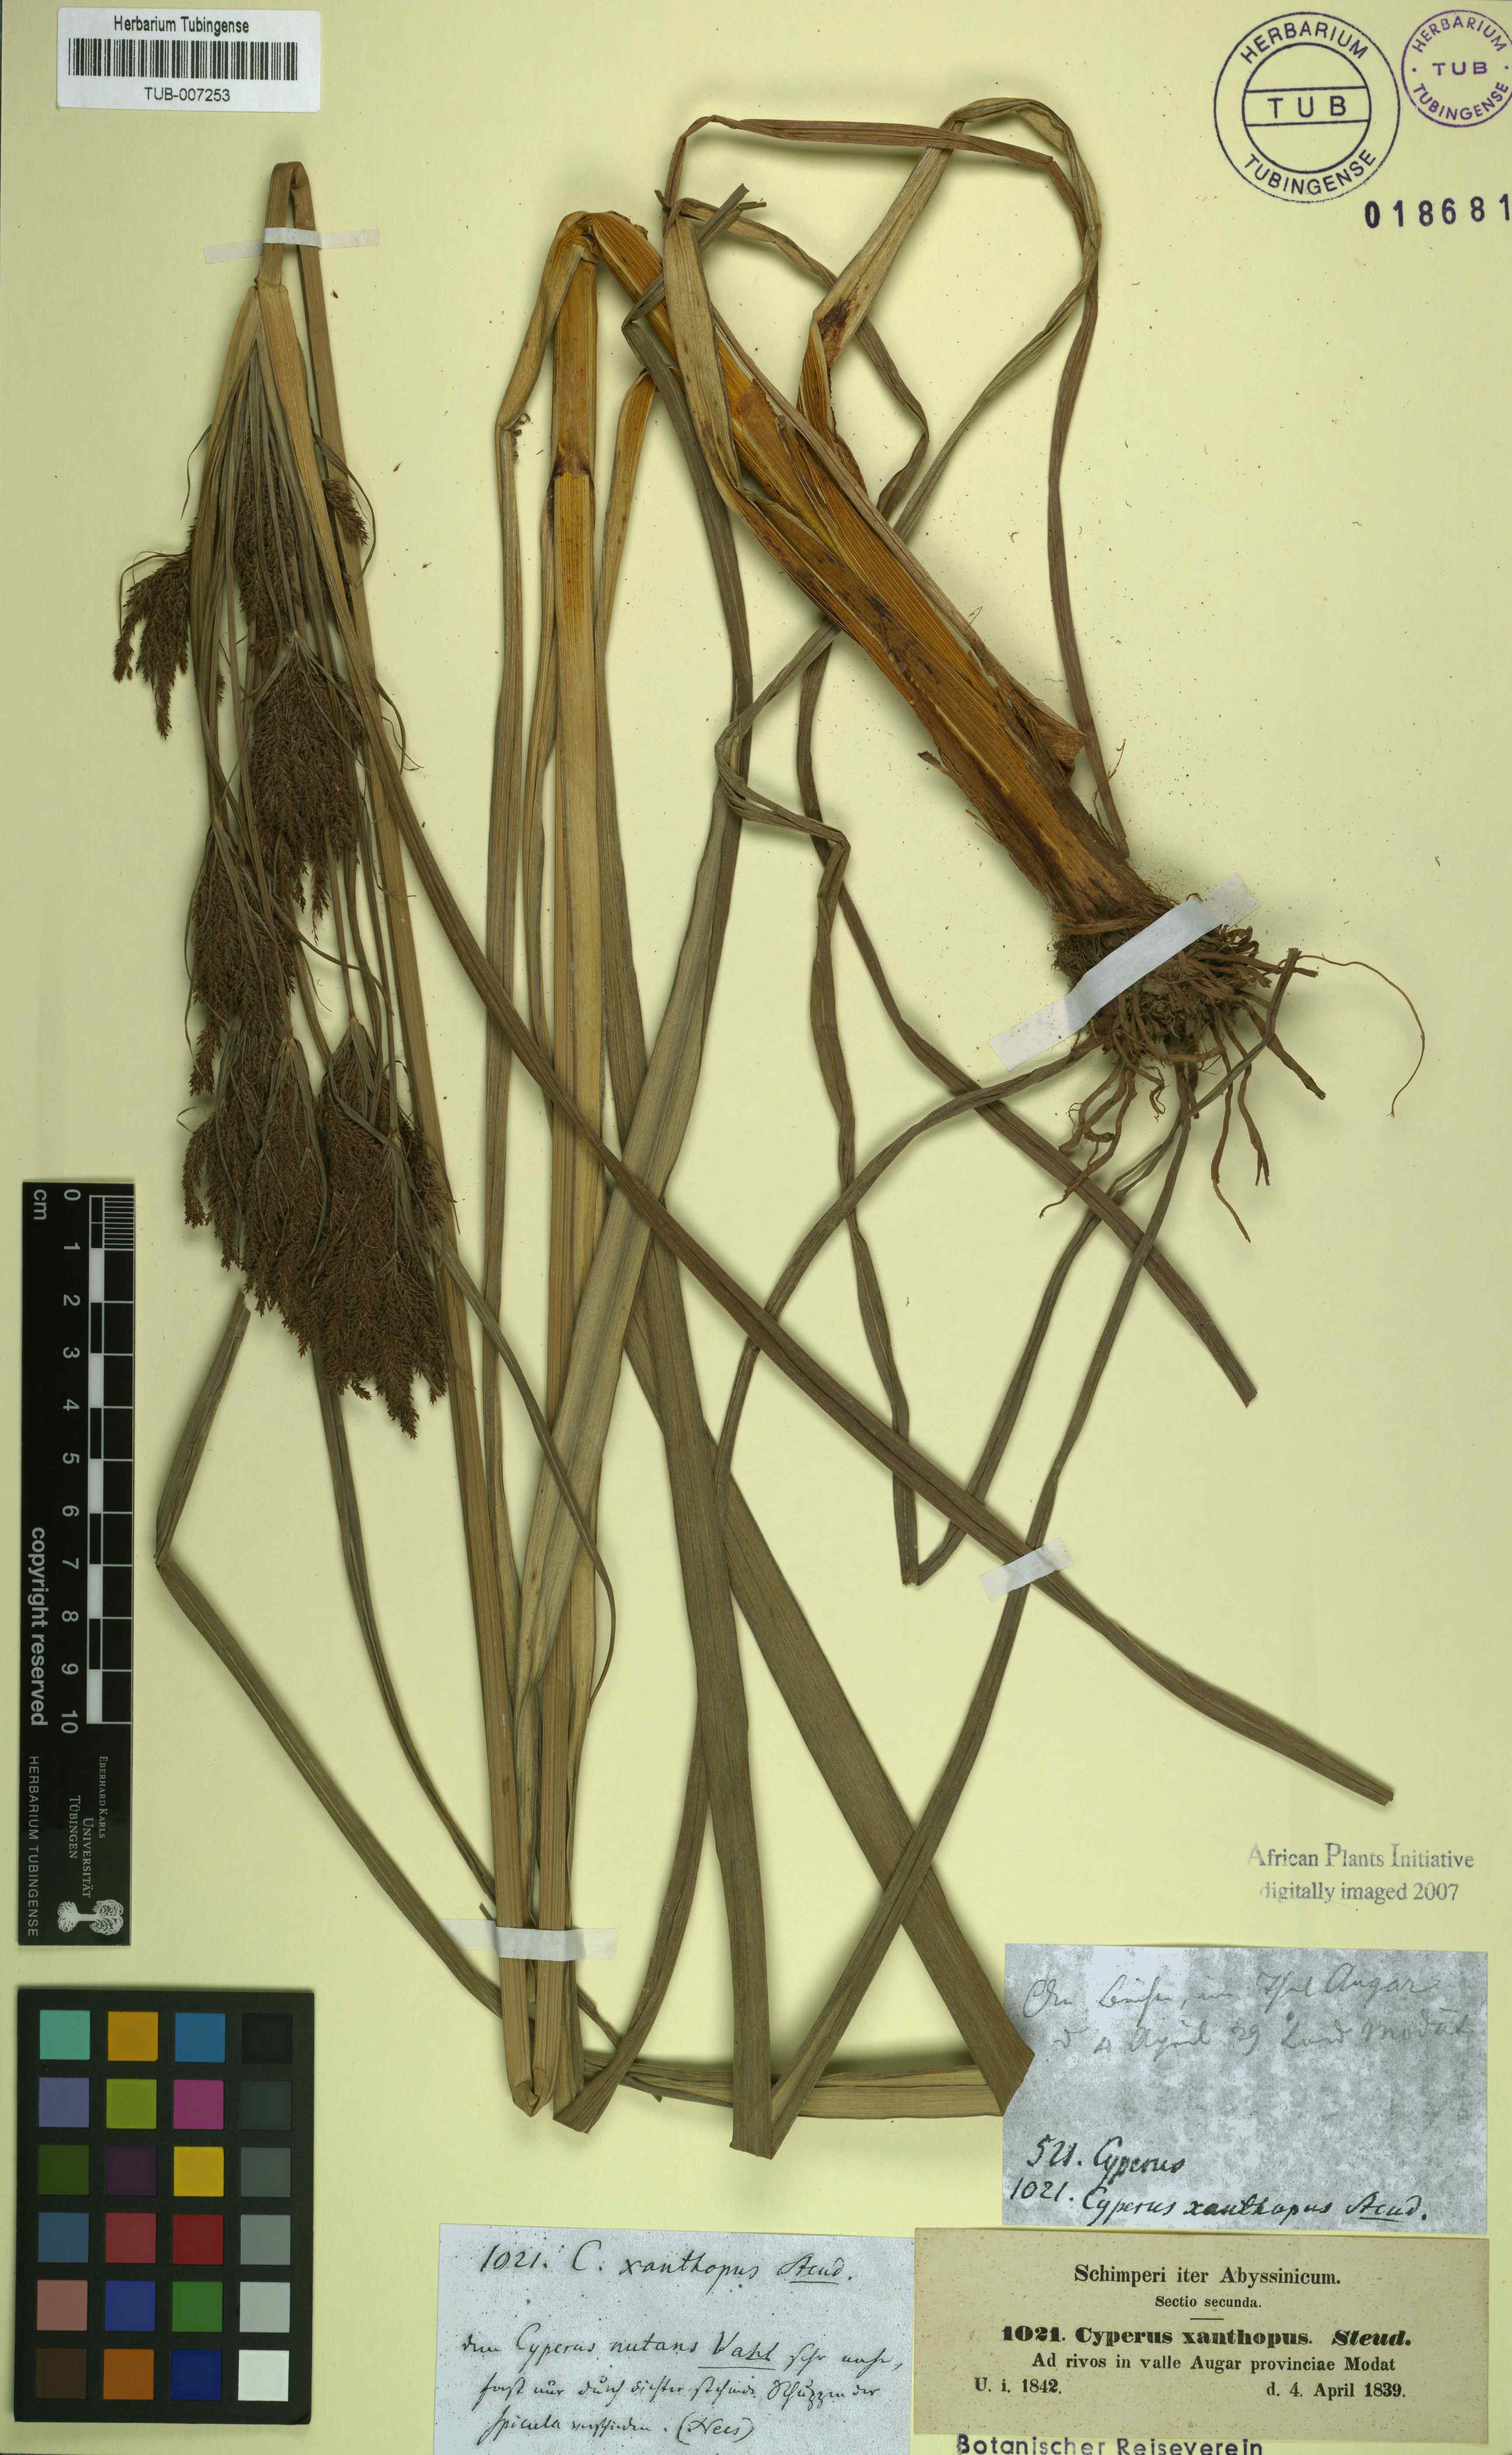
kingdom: Plantae
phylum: Tracheophyta
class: Liliopsida
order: Poales
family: Cyperaceae
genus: Cyperus
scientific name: Cyperus nutans
